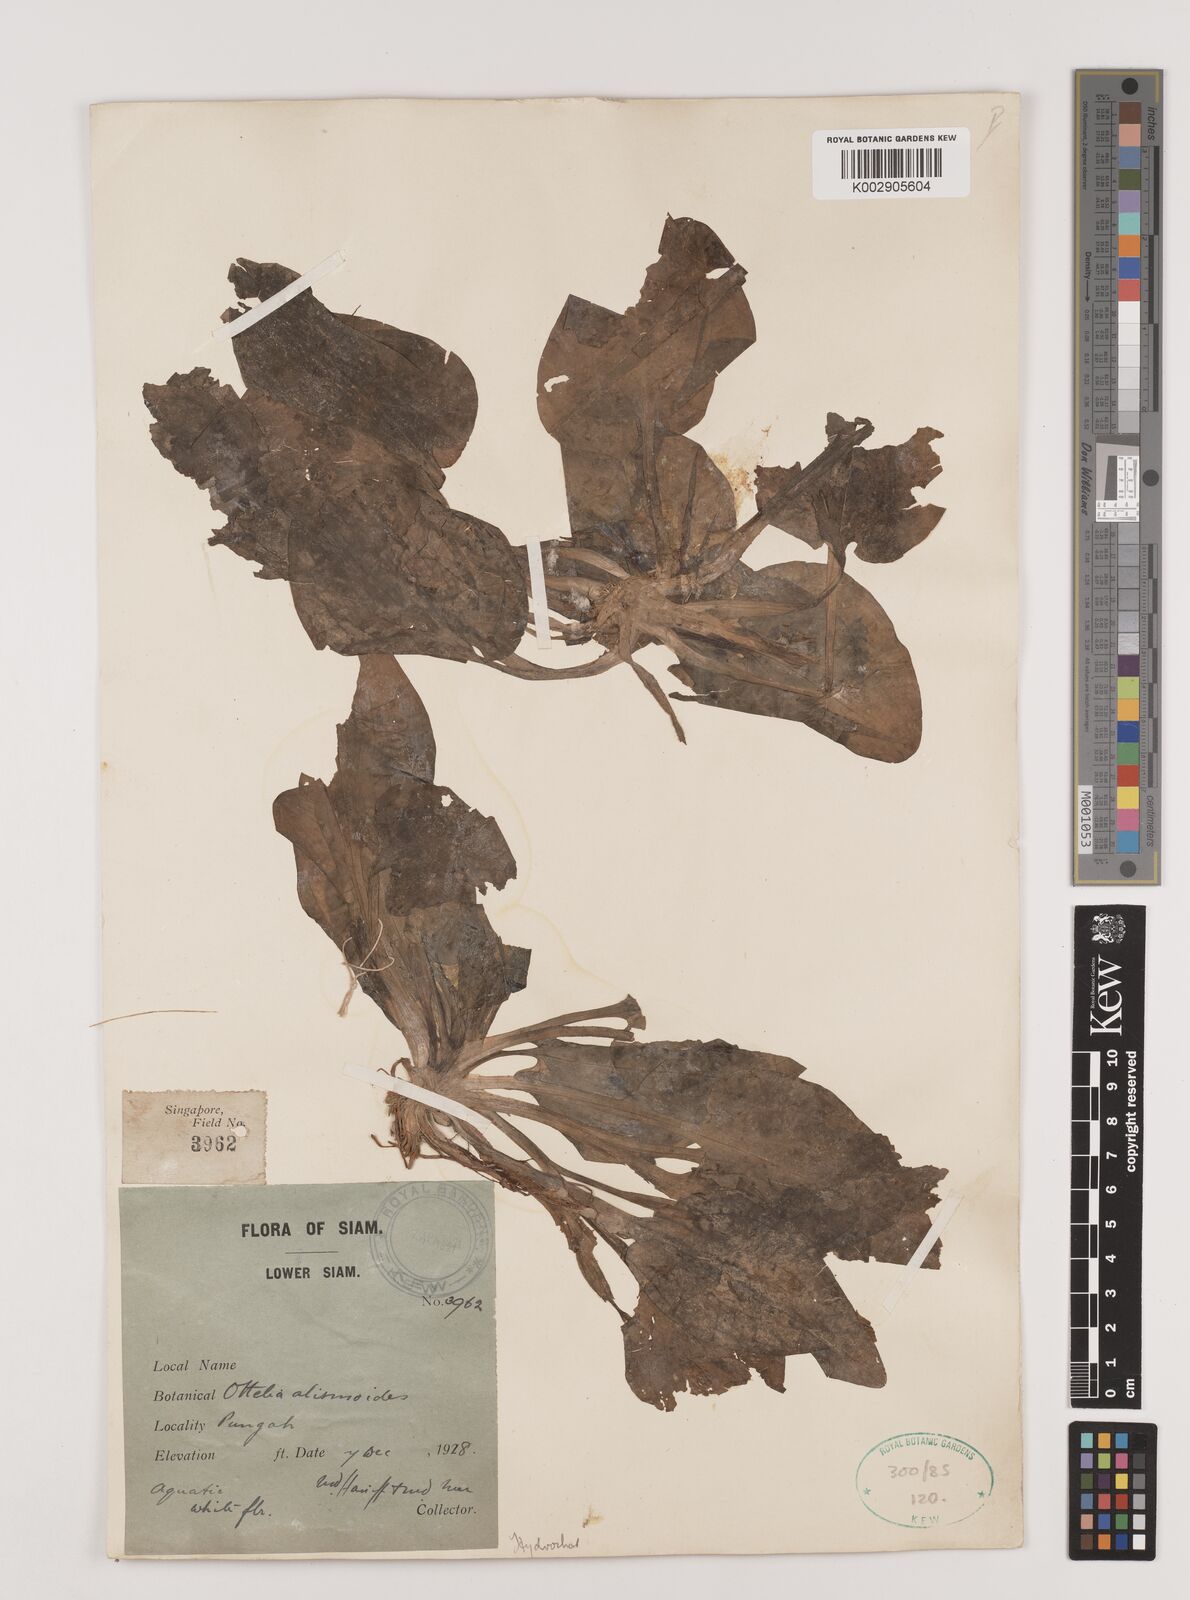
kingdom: Plantae
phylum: Tracheophyta
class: Liliopsida
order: Alismatales
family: Hydrocharitaceae
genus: Ottelia
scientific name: Ottelia alismoides
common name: Duck-lettuce
